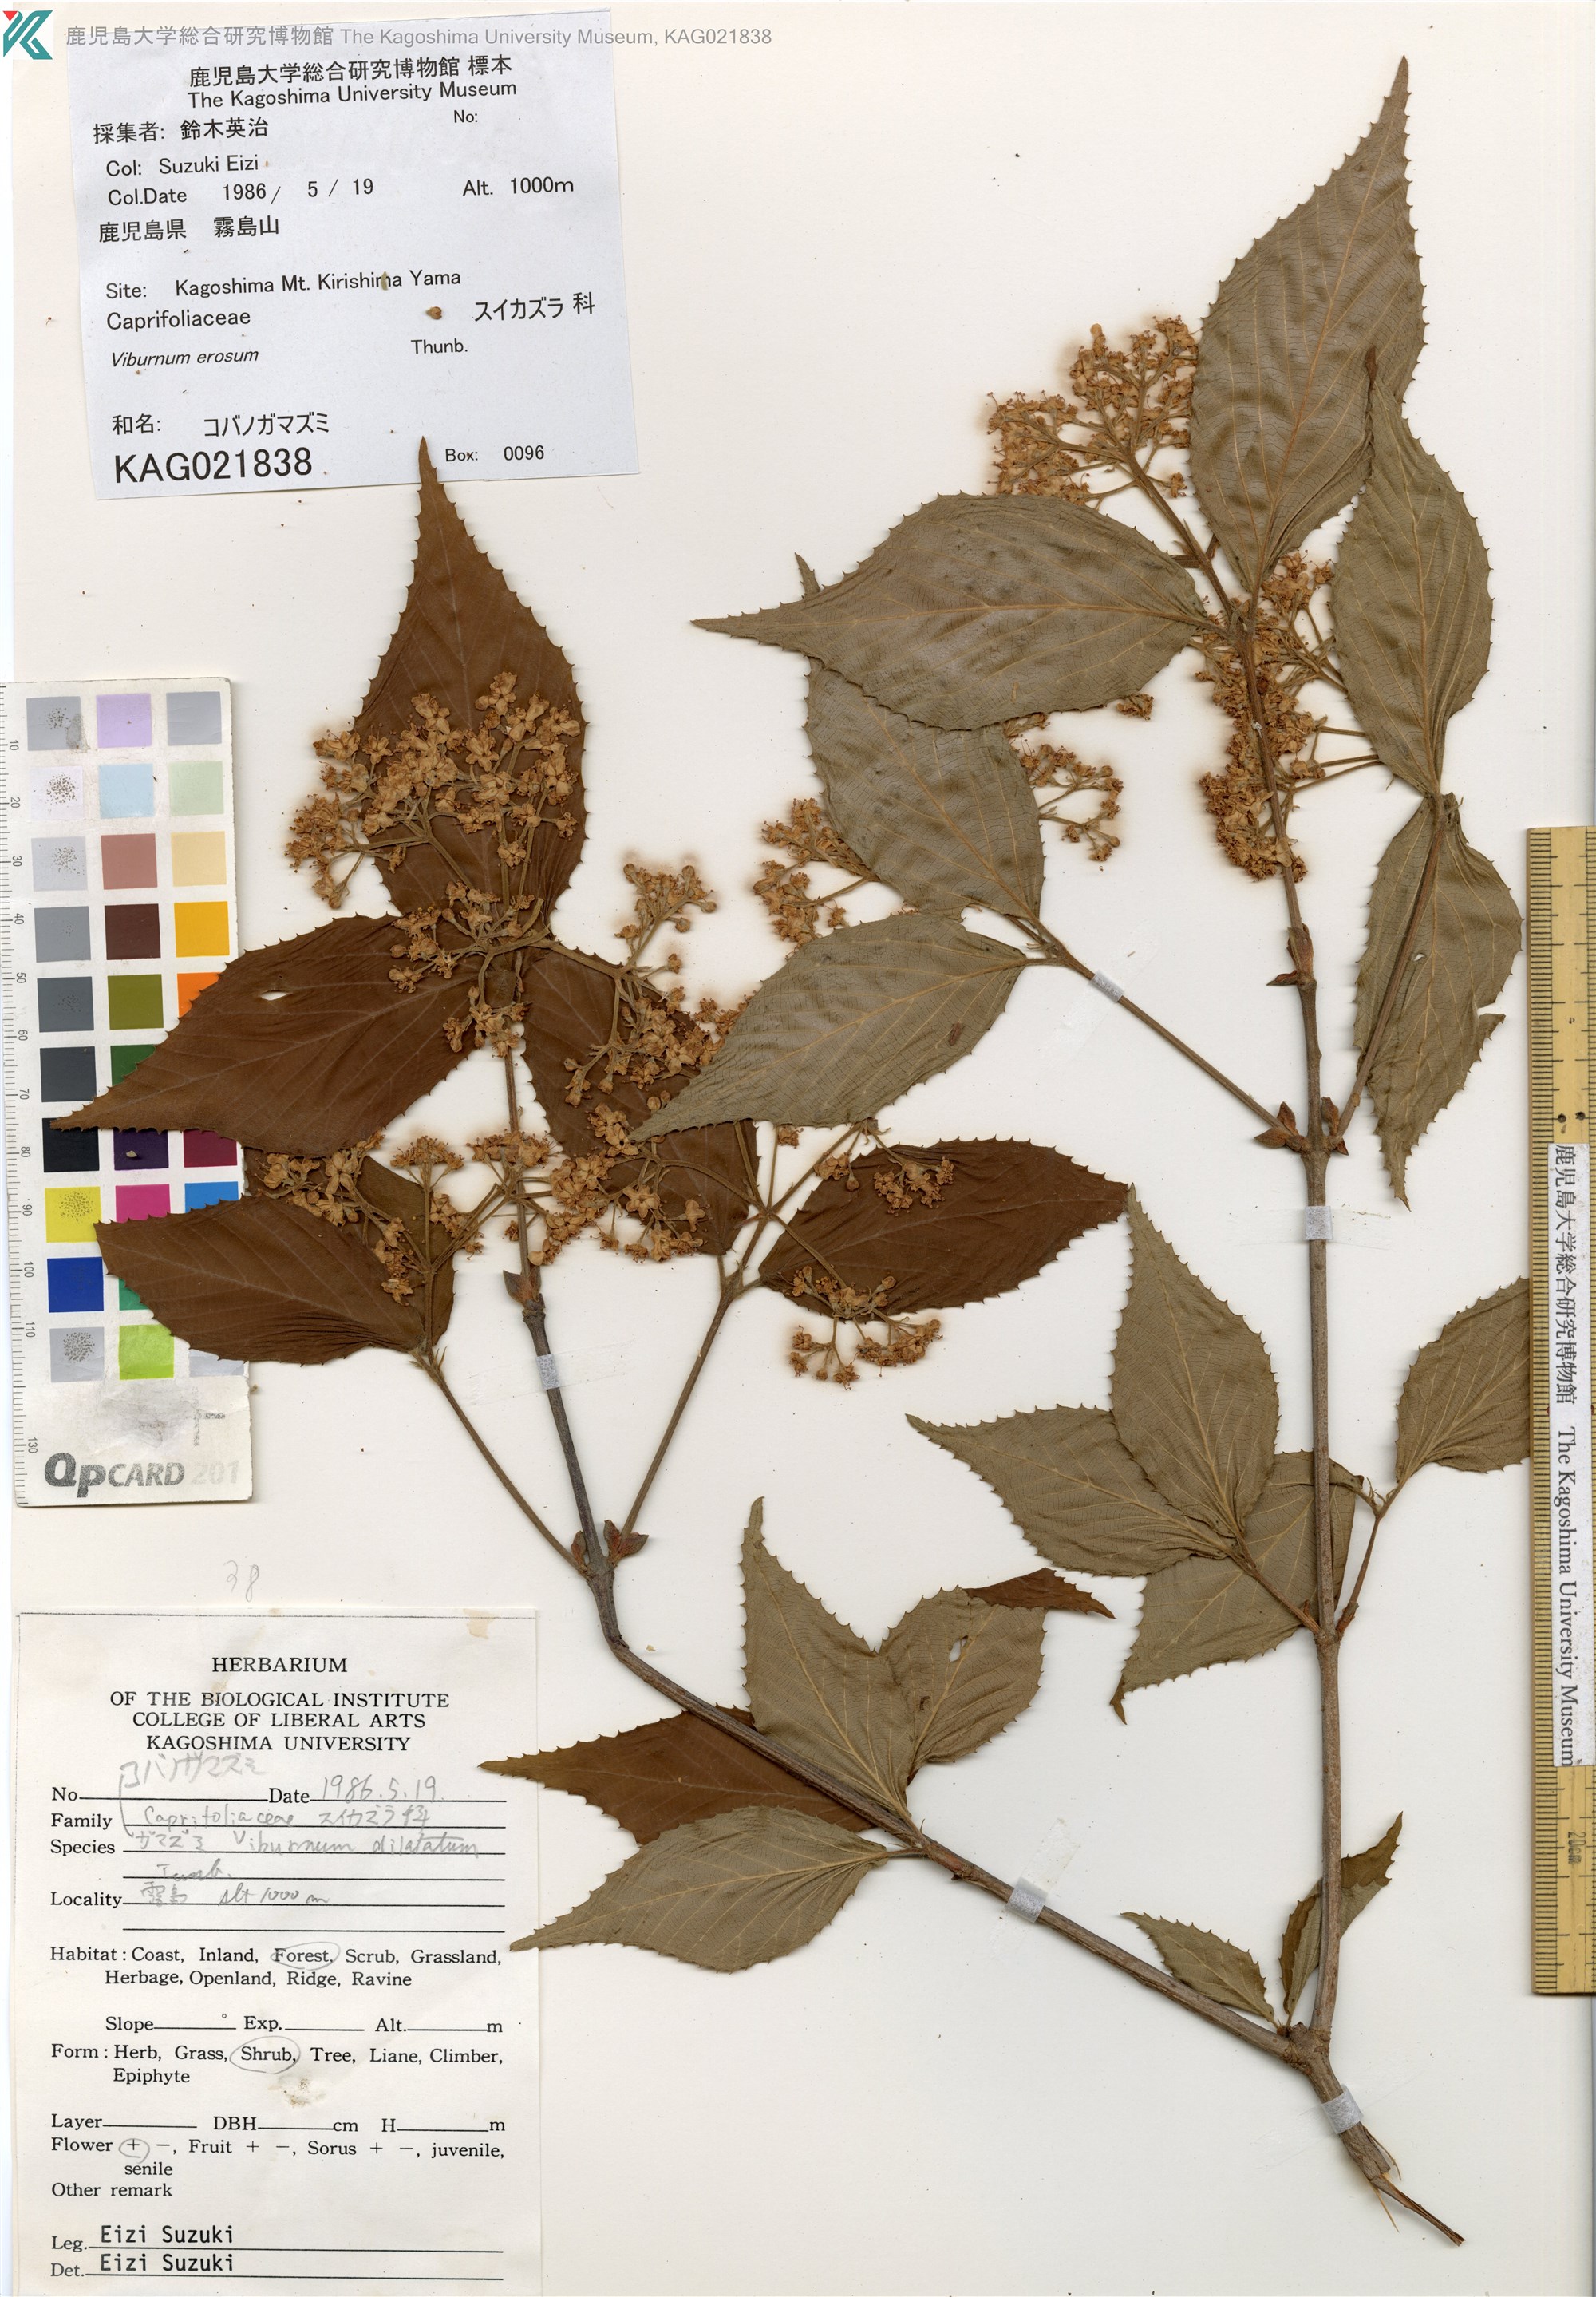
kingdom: Plantae
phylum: Tracheophyta
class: Magnoliopsida
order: Dipsacales
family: Viburnaceae
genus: Viburnum
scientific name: Viburnum erosum
